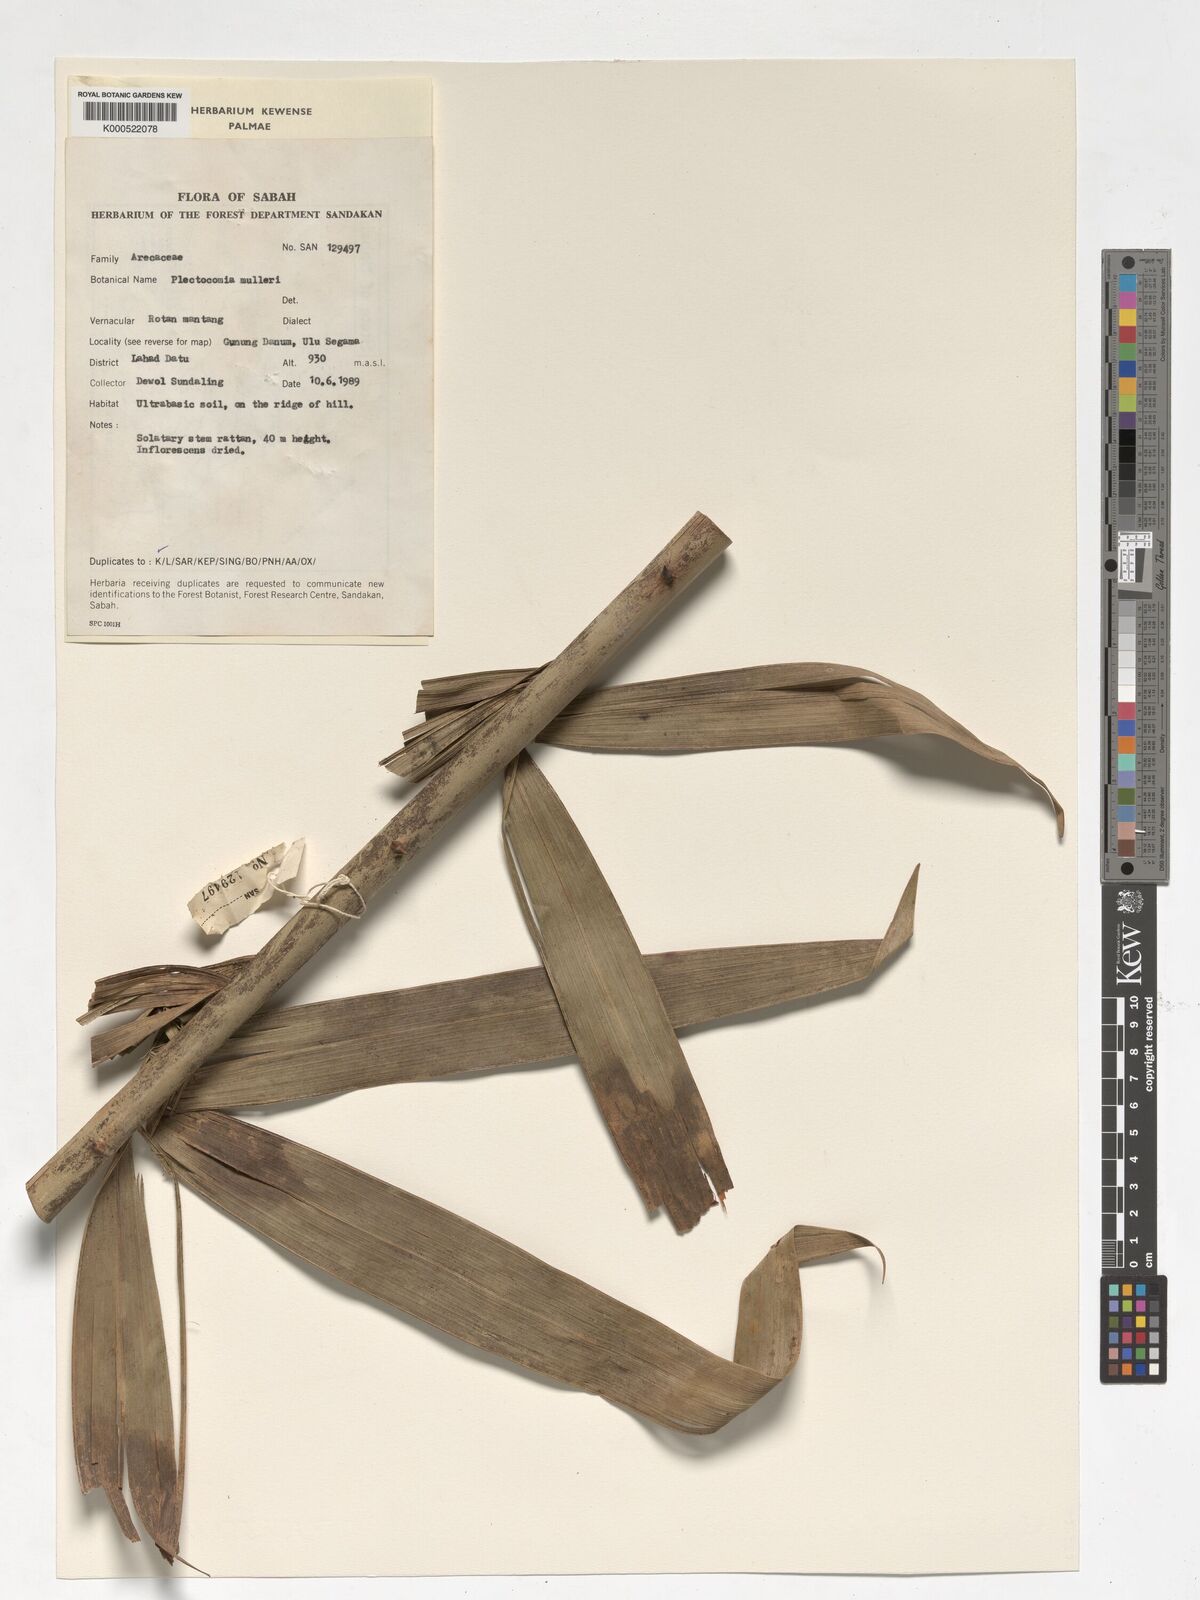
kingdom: Plantae
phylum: Tracheophyta
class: Liliopsida
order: Arecales
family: Arecaceae
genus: Plectocomia
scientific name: Plectocomia mulleri
